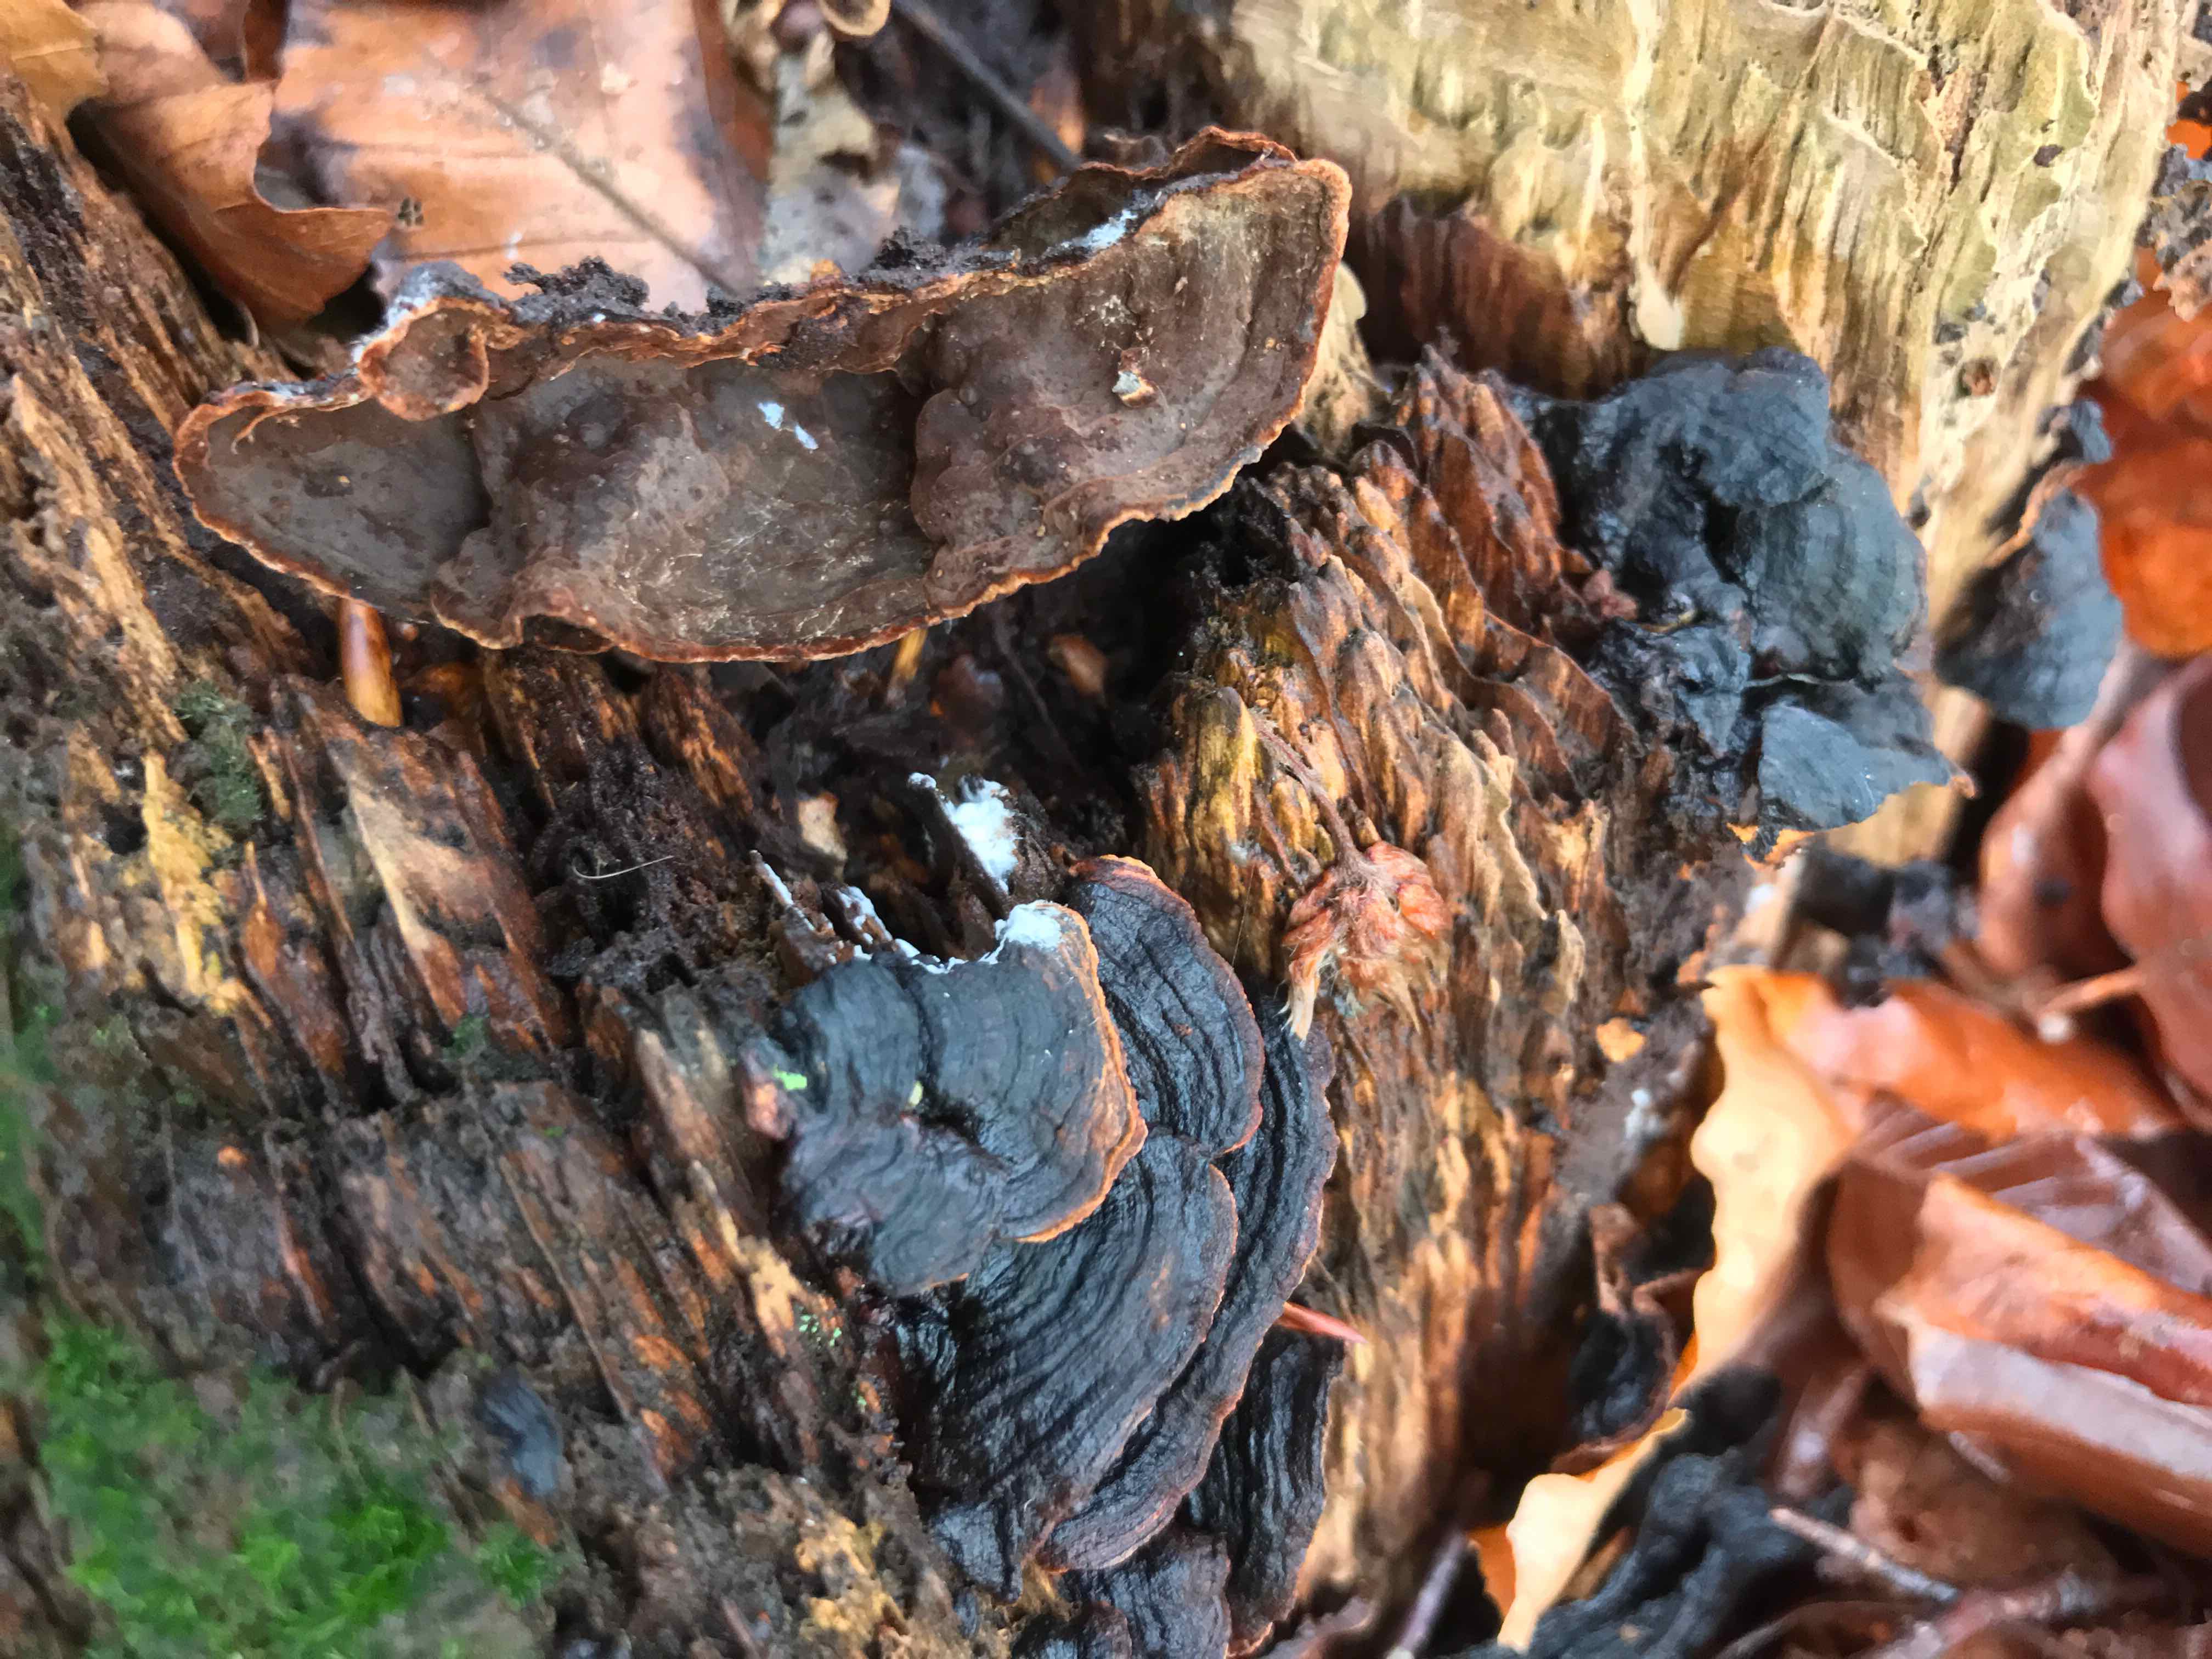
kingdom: Fungi
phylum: Basidiomycota
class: Agaricomycetes
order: Hymenochaetales
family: Hymenochaetaceae
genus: Hymenochaete
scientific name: Hymenochaete rubiginosa
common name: stiv ruslædersvamp
